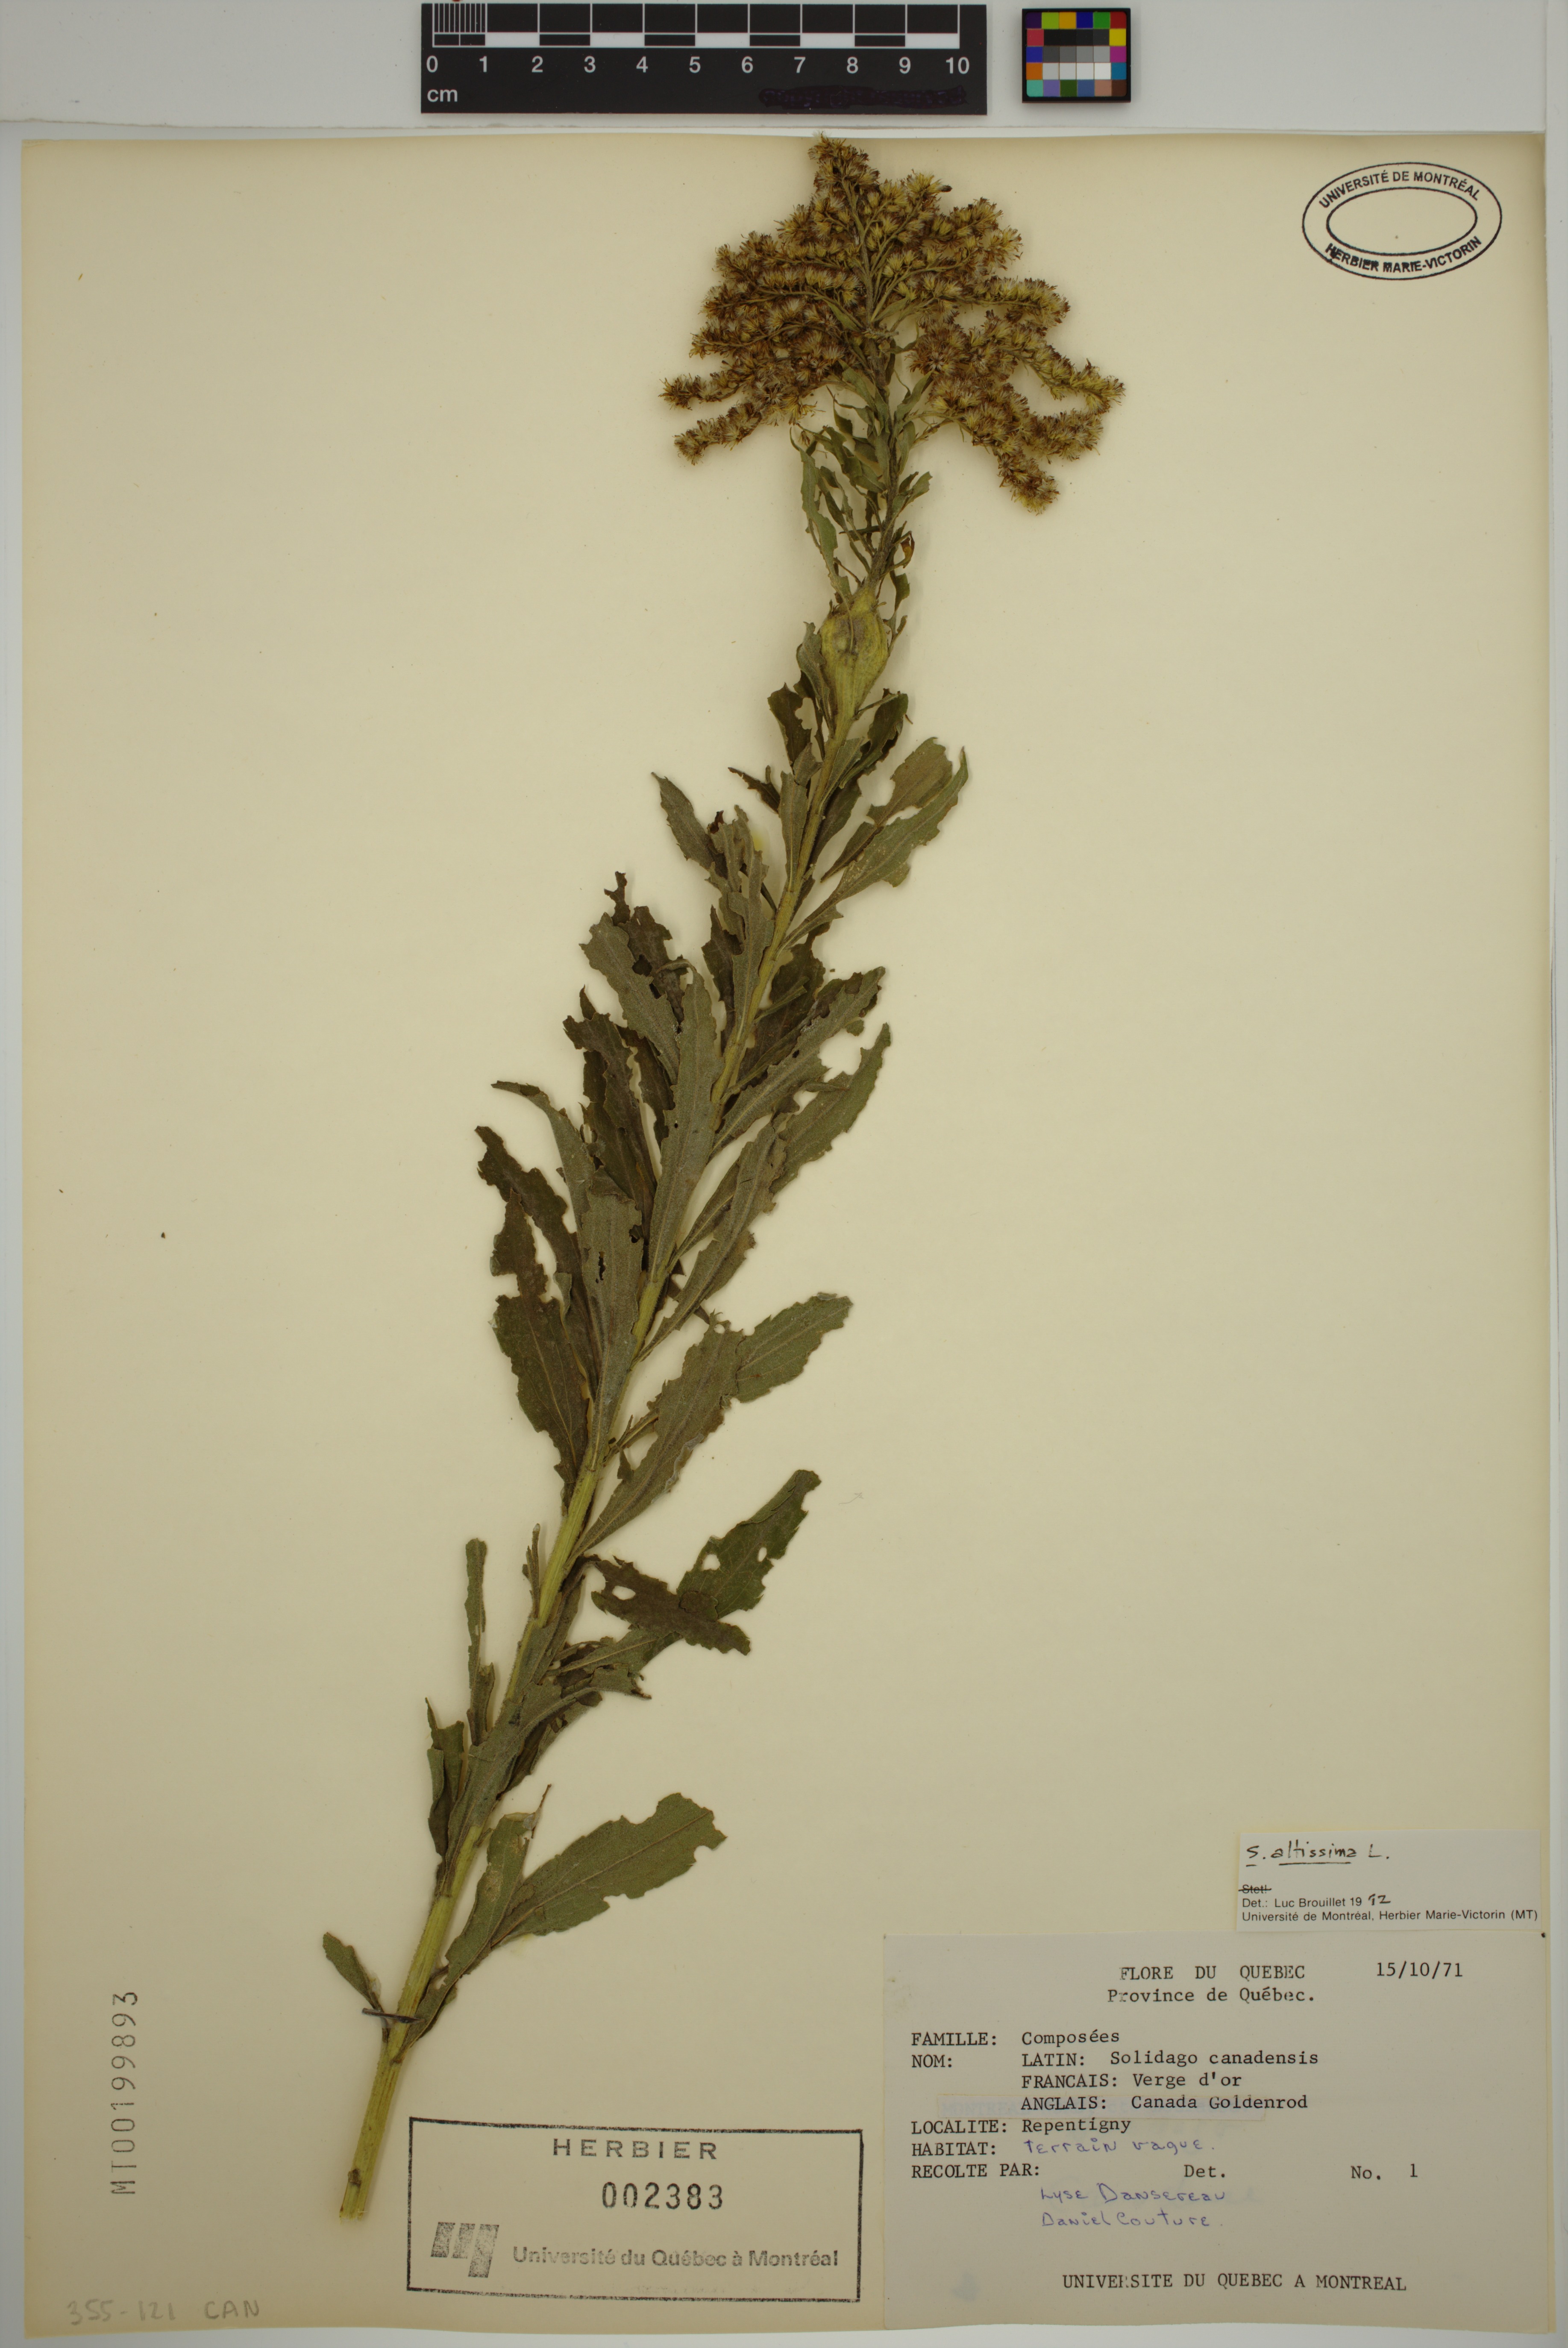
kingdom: Plantae
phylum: Tracheophyta
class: Magnoliopsida
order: Asterales
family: Asteraceae
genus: Solidago
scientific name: Solidago altissima
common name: Late goldenrod
